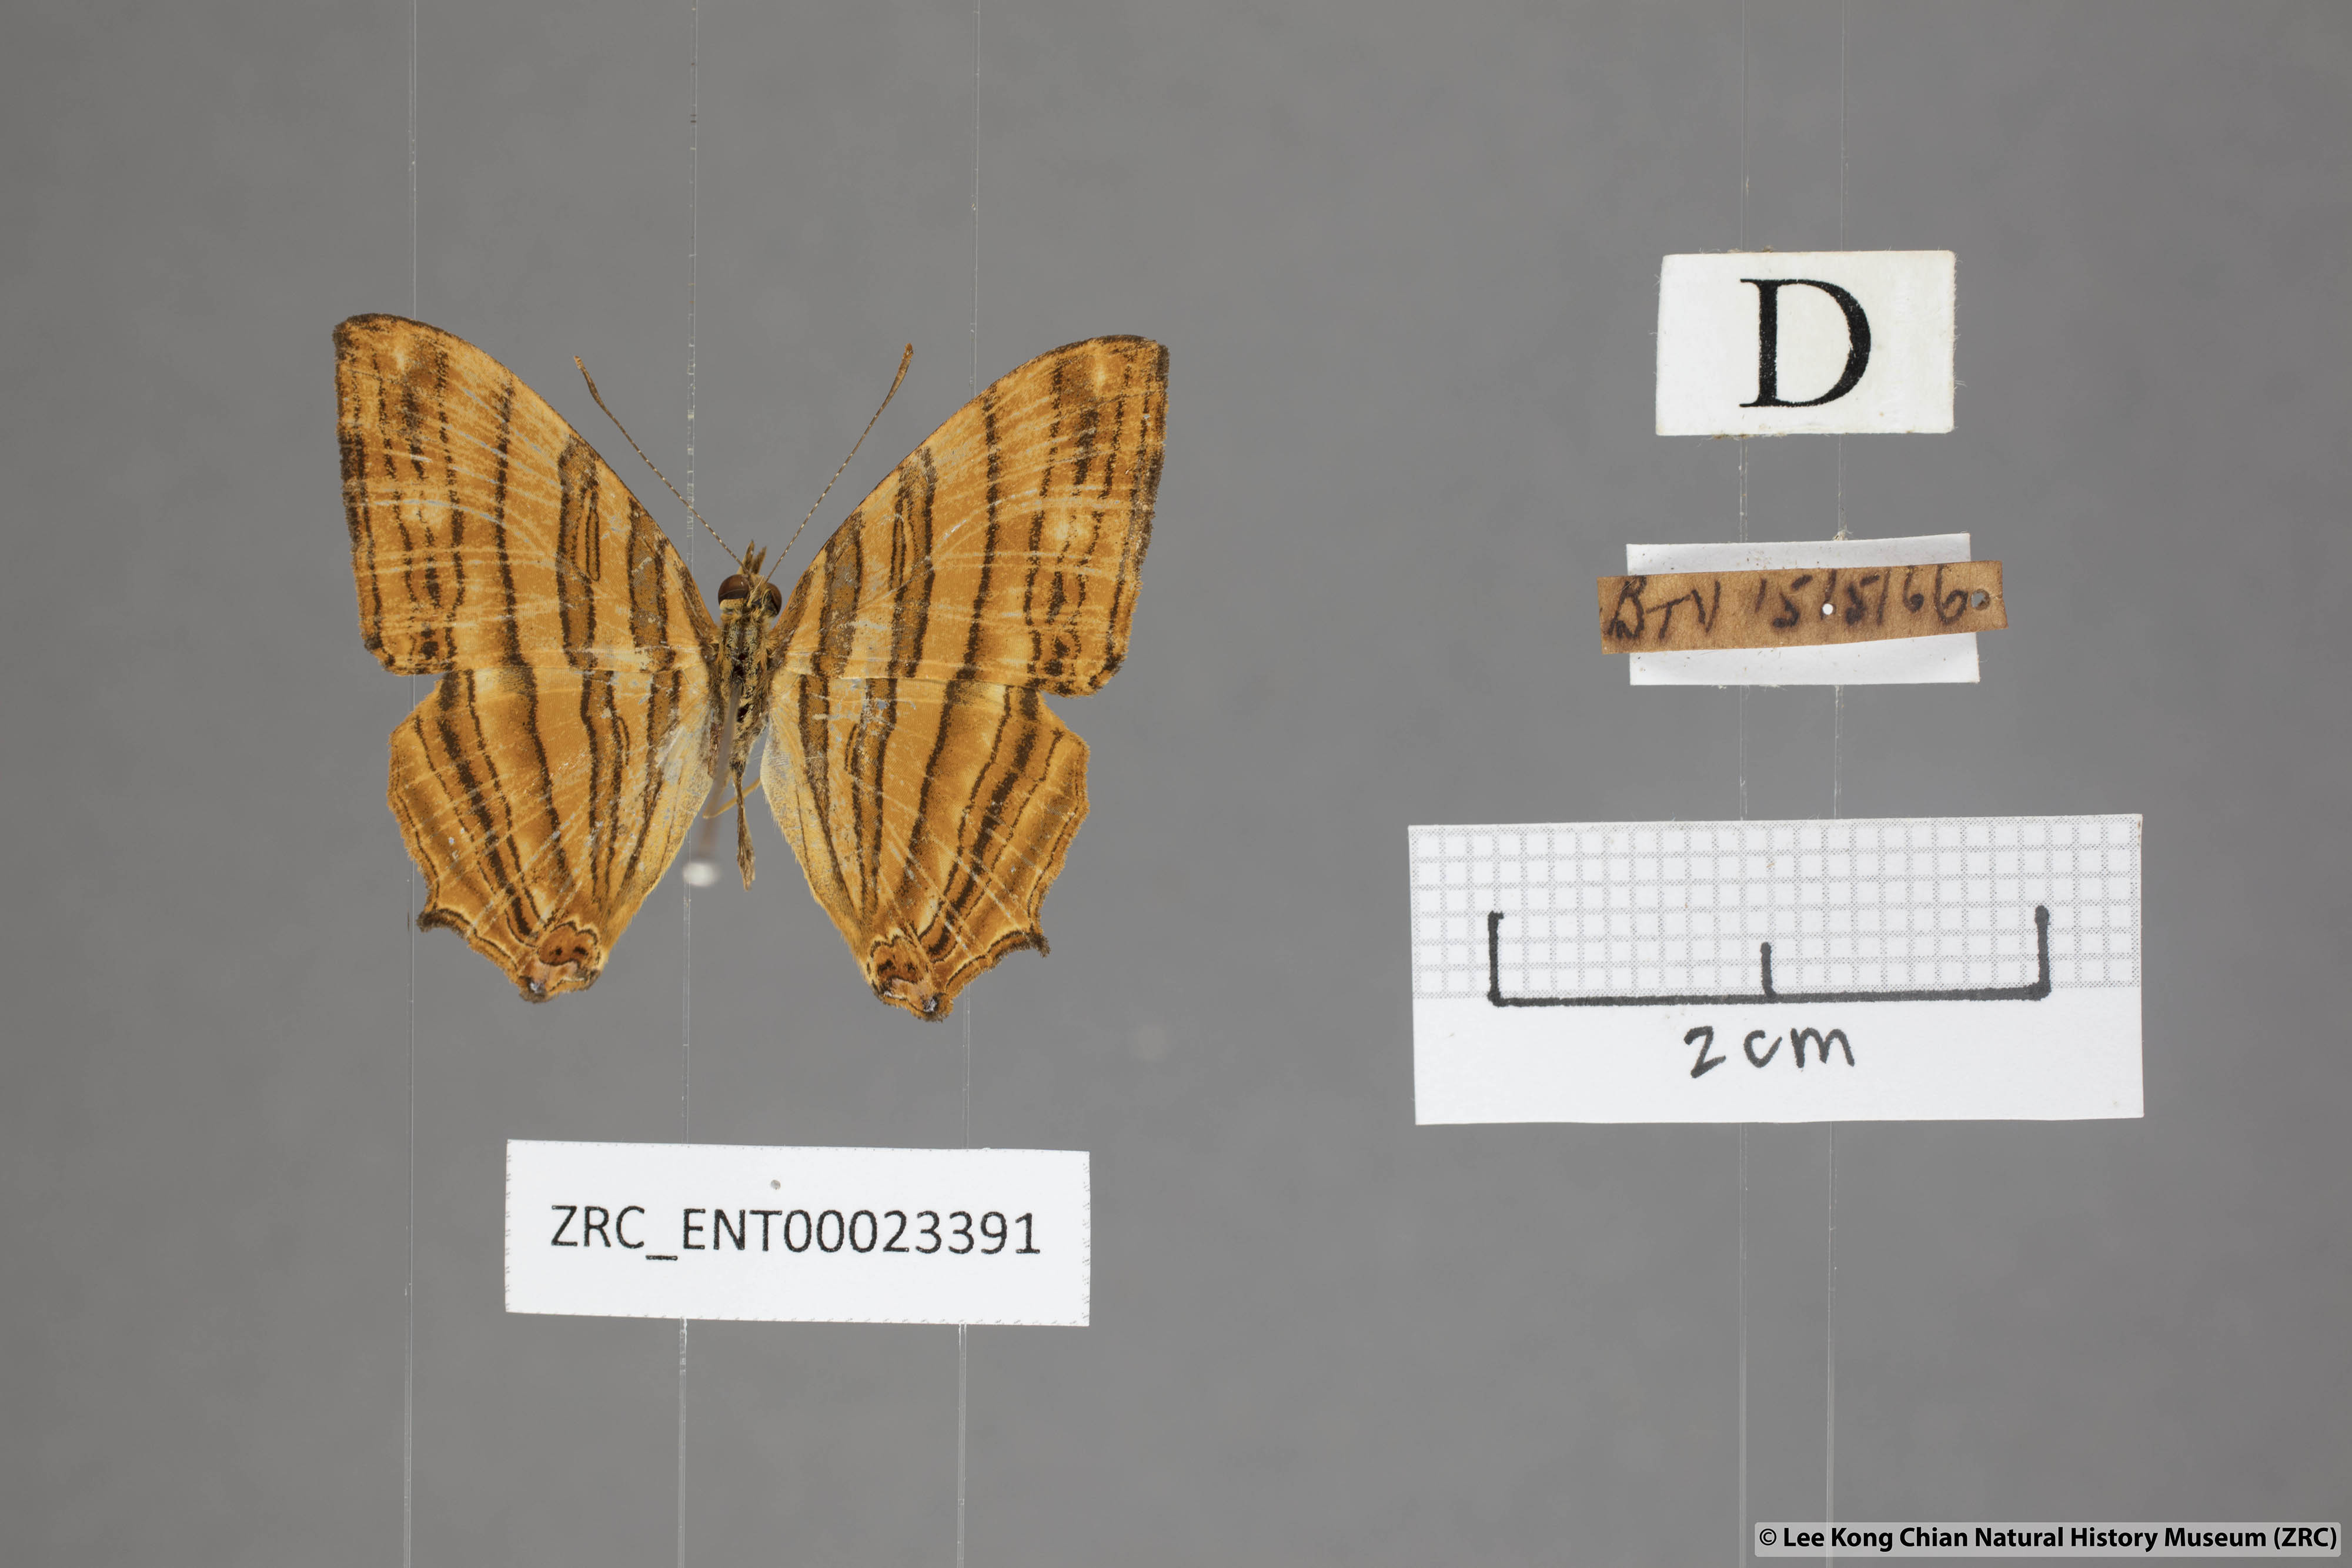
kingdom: Animalia
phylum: Arthropoda
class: Insecta
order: Lepidoptera
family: Nymphalidae
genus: Chersonesia
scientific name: Chersonesia risa
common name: Common maplet
